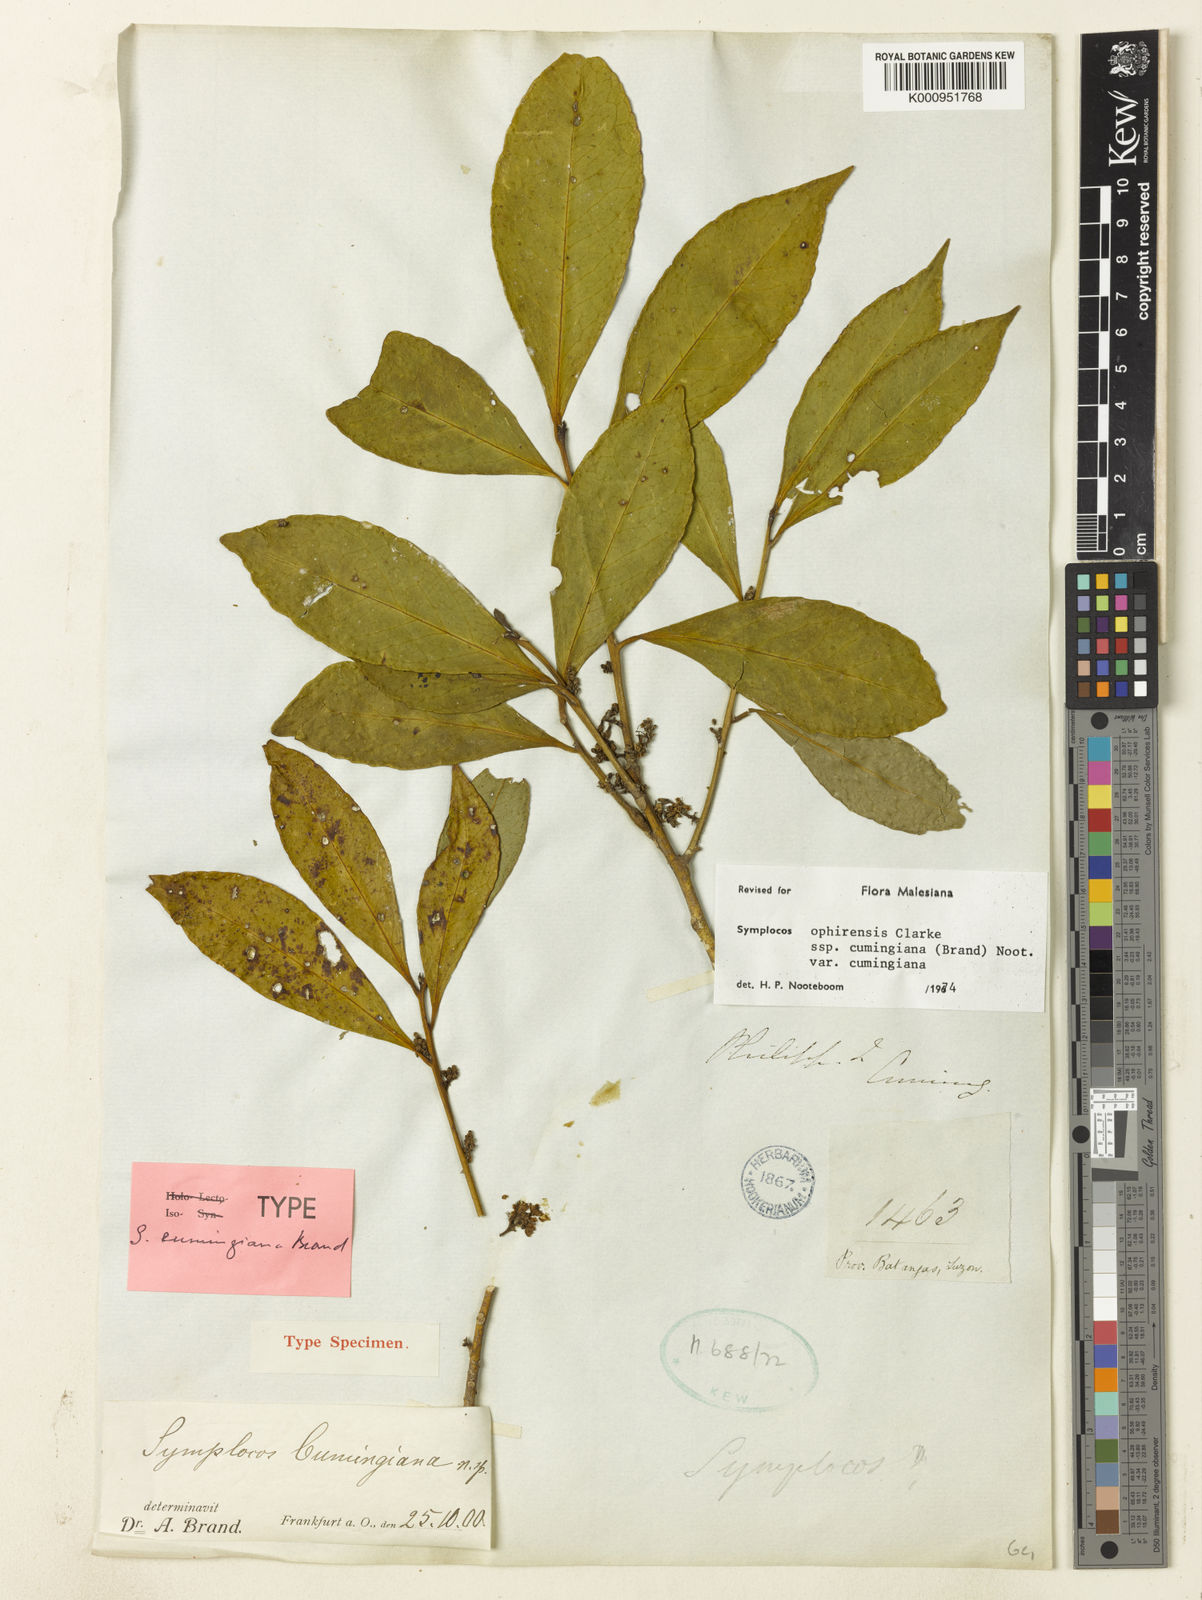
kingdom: Plantae
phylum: Tracheophyta
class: Magnoliopsida
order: Ericales
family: Symplocaceae
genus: Symplocos
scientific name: Symplocos ophirensis
